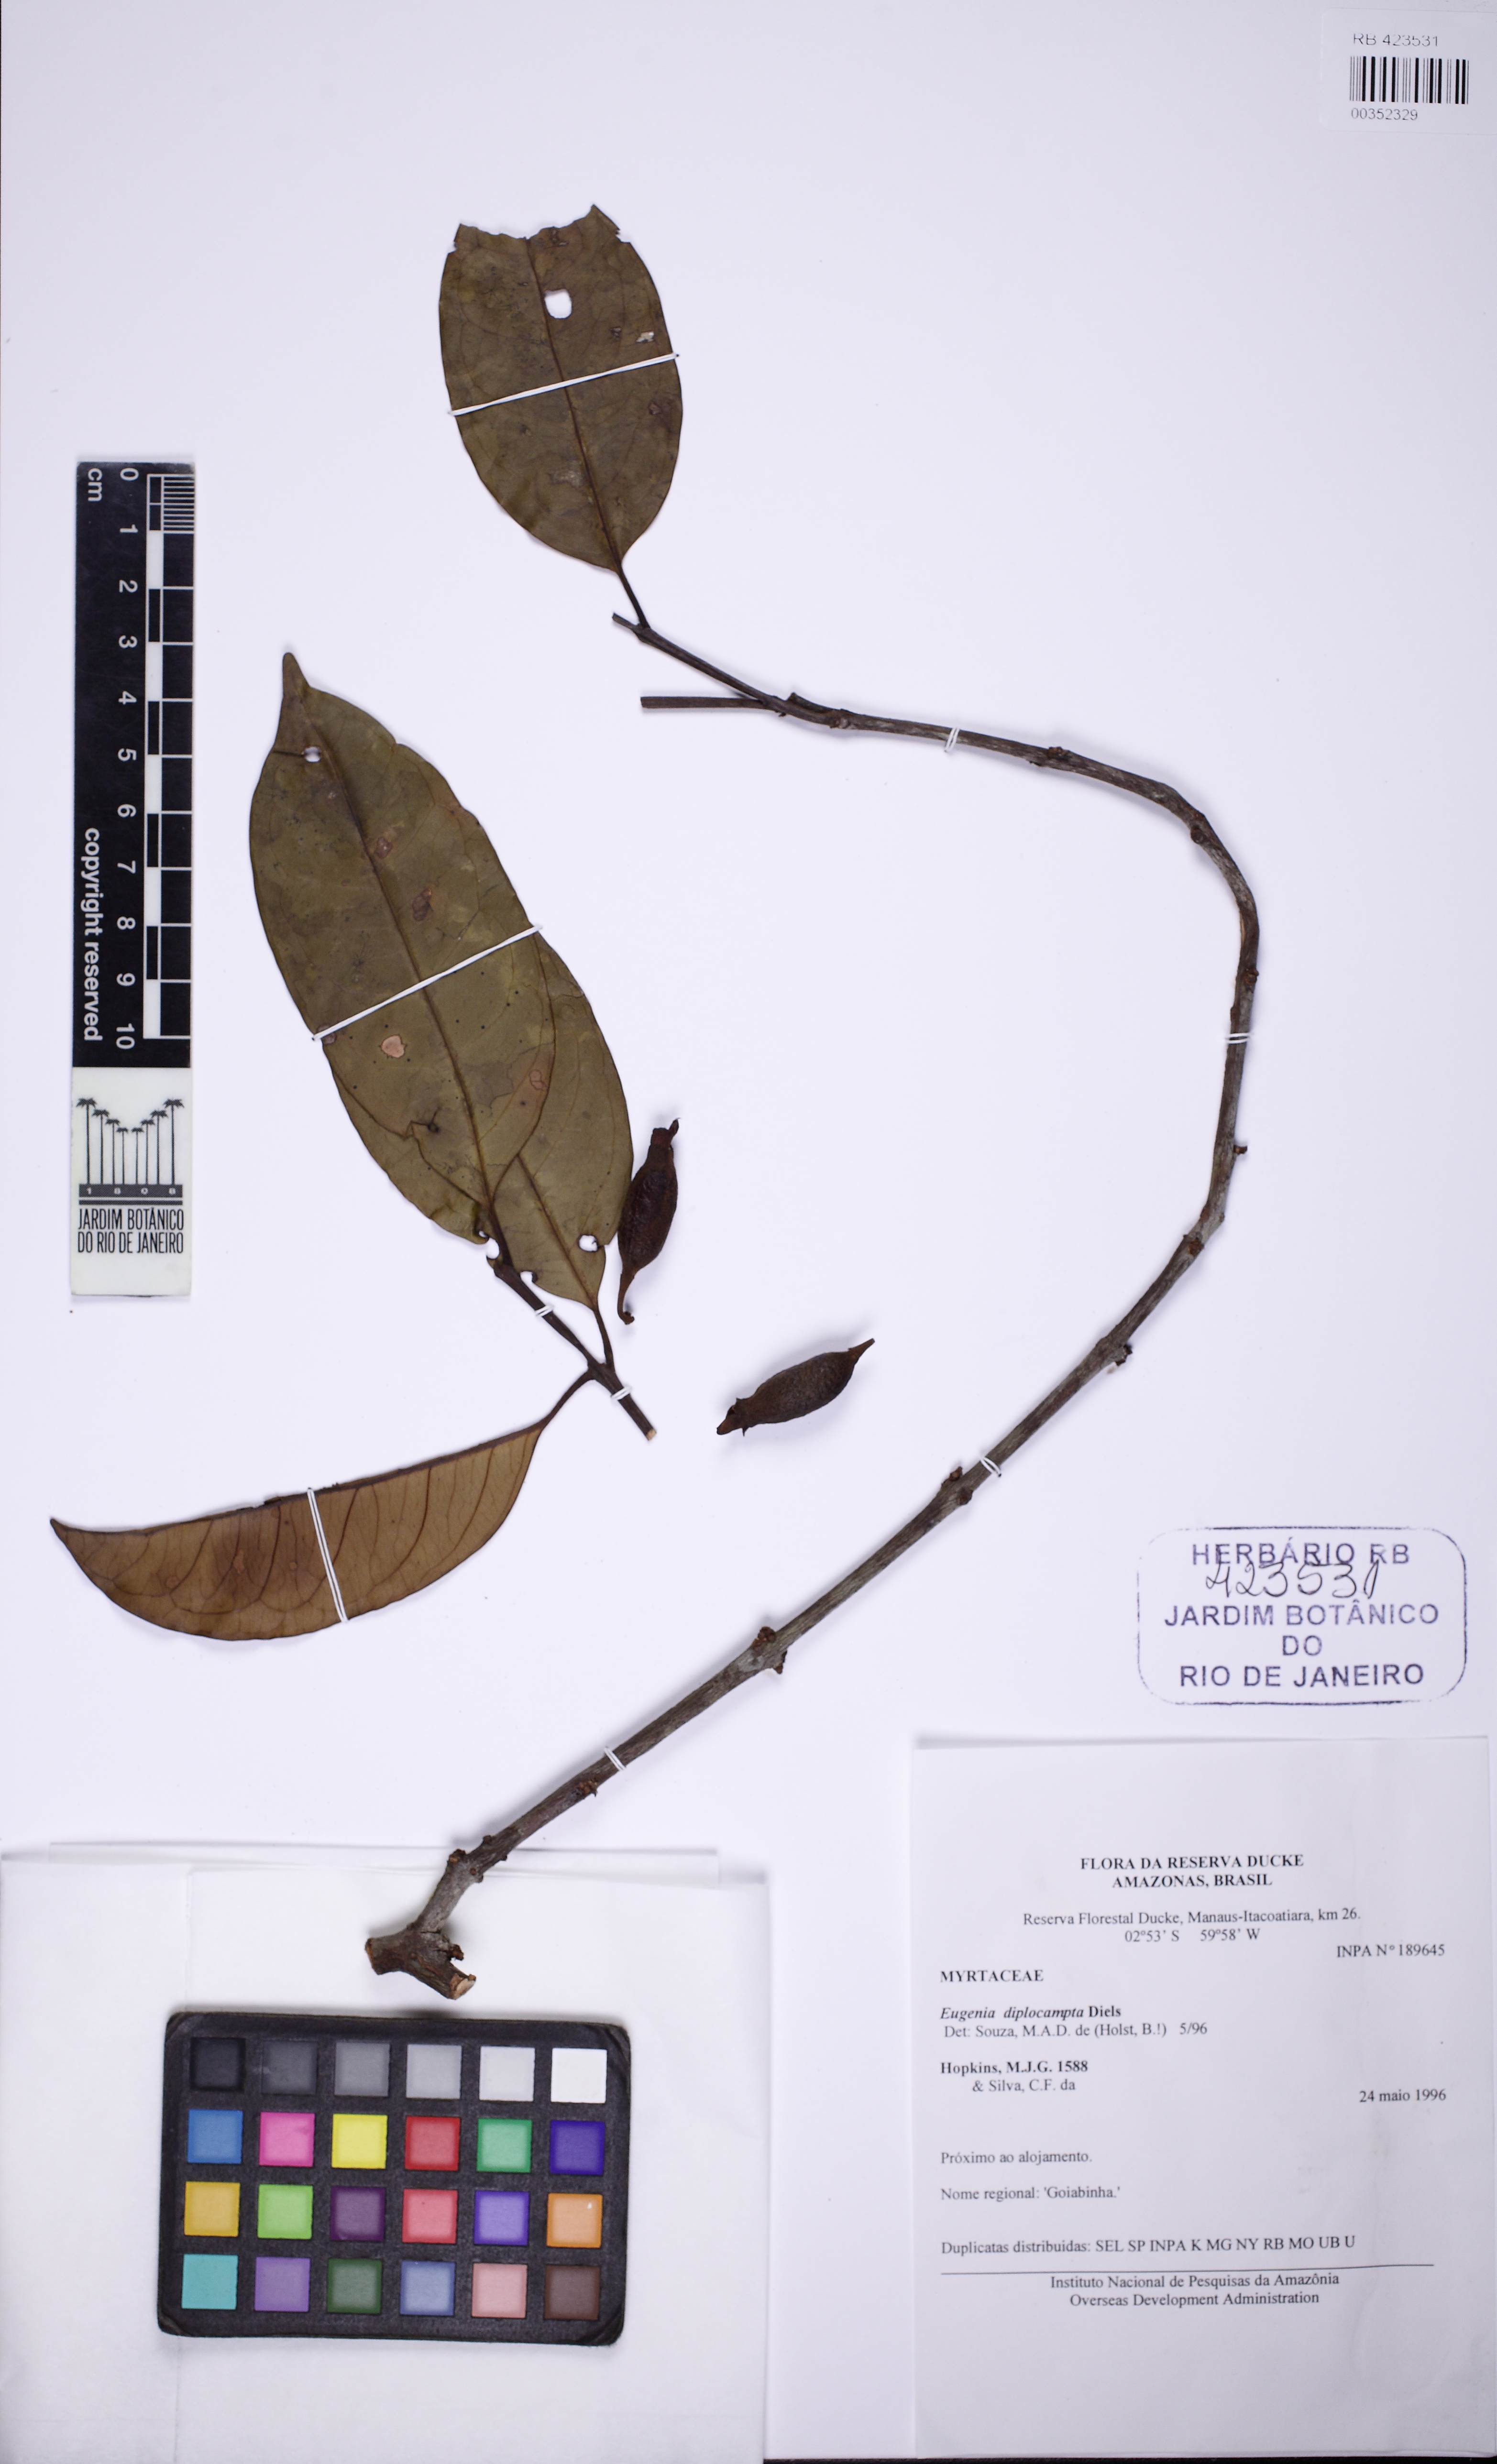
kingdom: Plantae
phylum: Tracheophyta
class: Magnoliopsida
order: Myrtales
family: Myrtaceae
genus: Eugenia
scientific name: Eugenia diplocampta
